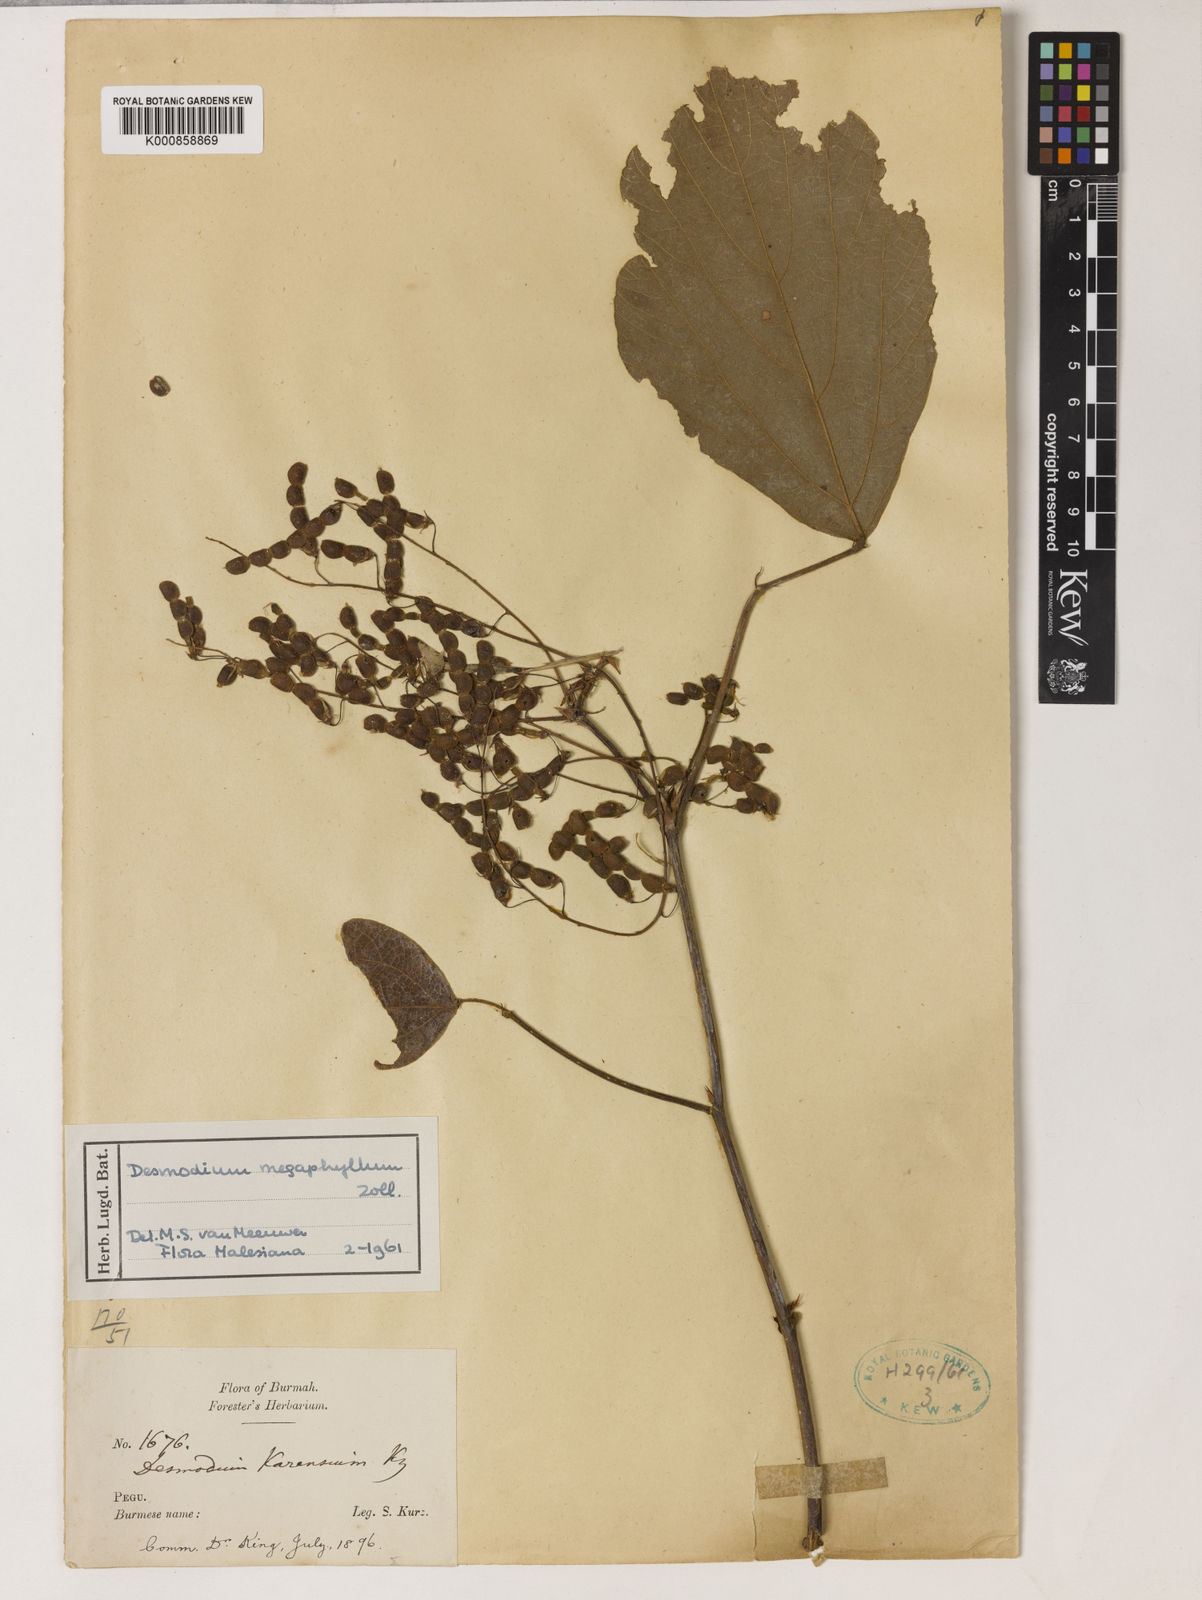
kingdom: Plantae
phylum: Tracheophyta
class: Magnoliopsida
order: Fabales
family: Fabaceae
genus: Puhuaea
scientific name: Puhuaea megaphylla
